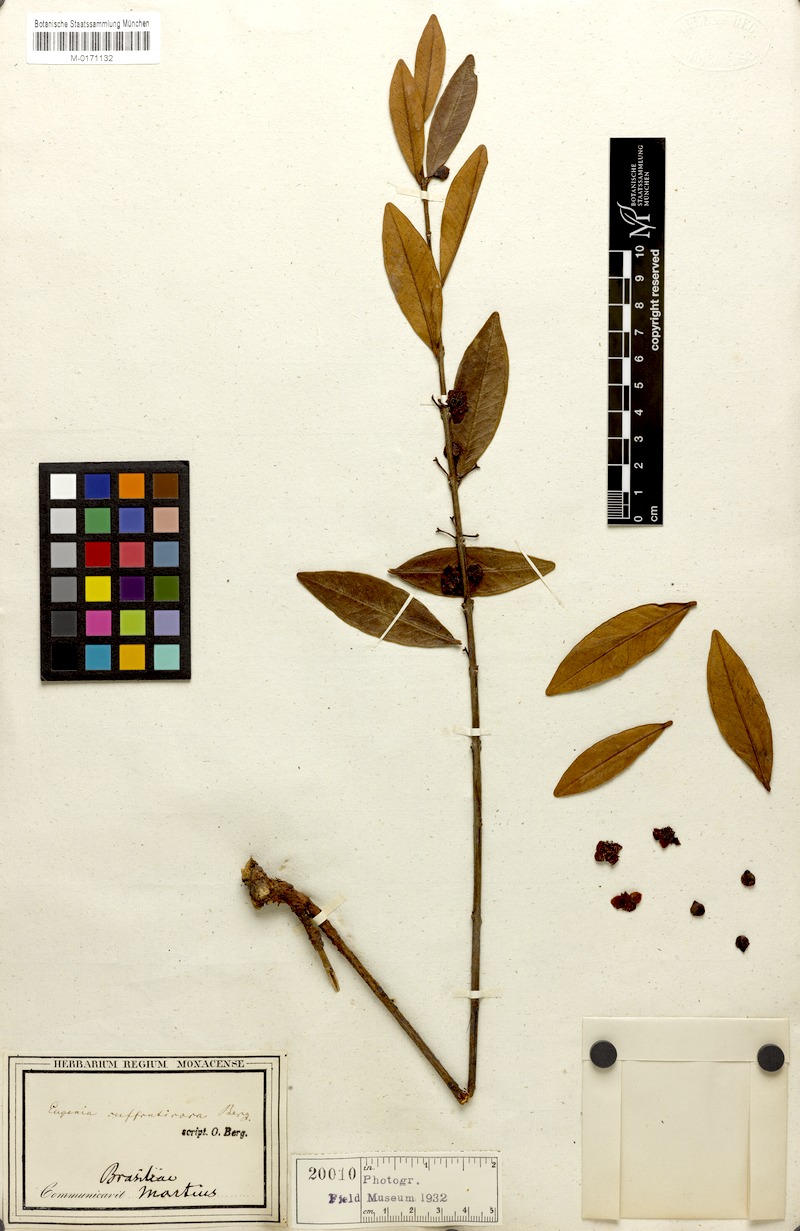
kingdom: Plantae
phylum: Tracheophyta
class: Magnoliopsida
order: Myrtales
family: Myrtaceae
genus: Eugenia
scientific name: Eugenia punicifolia
